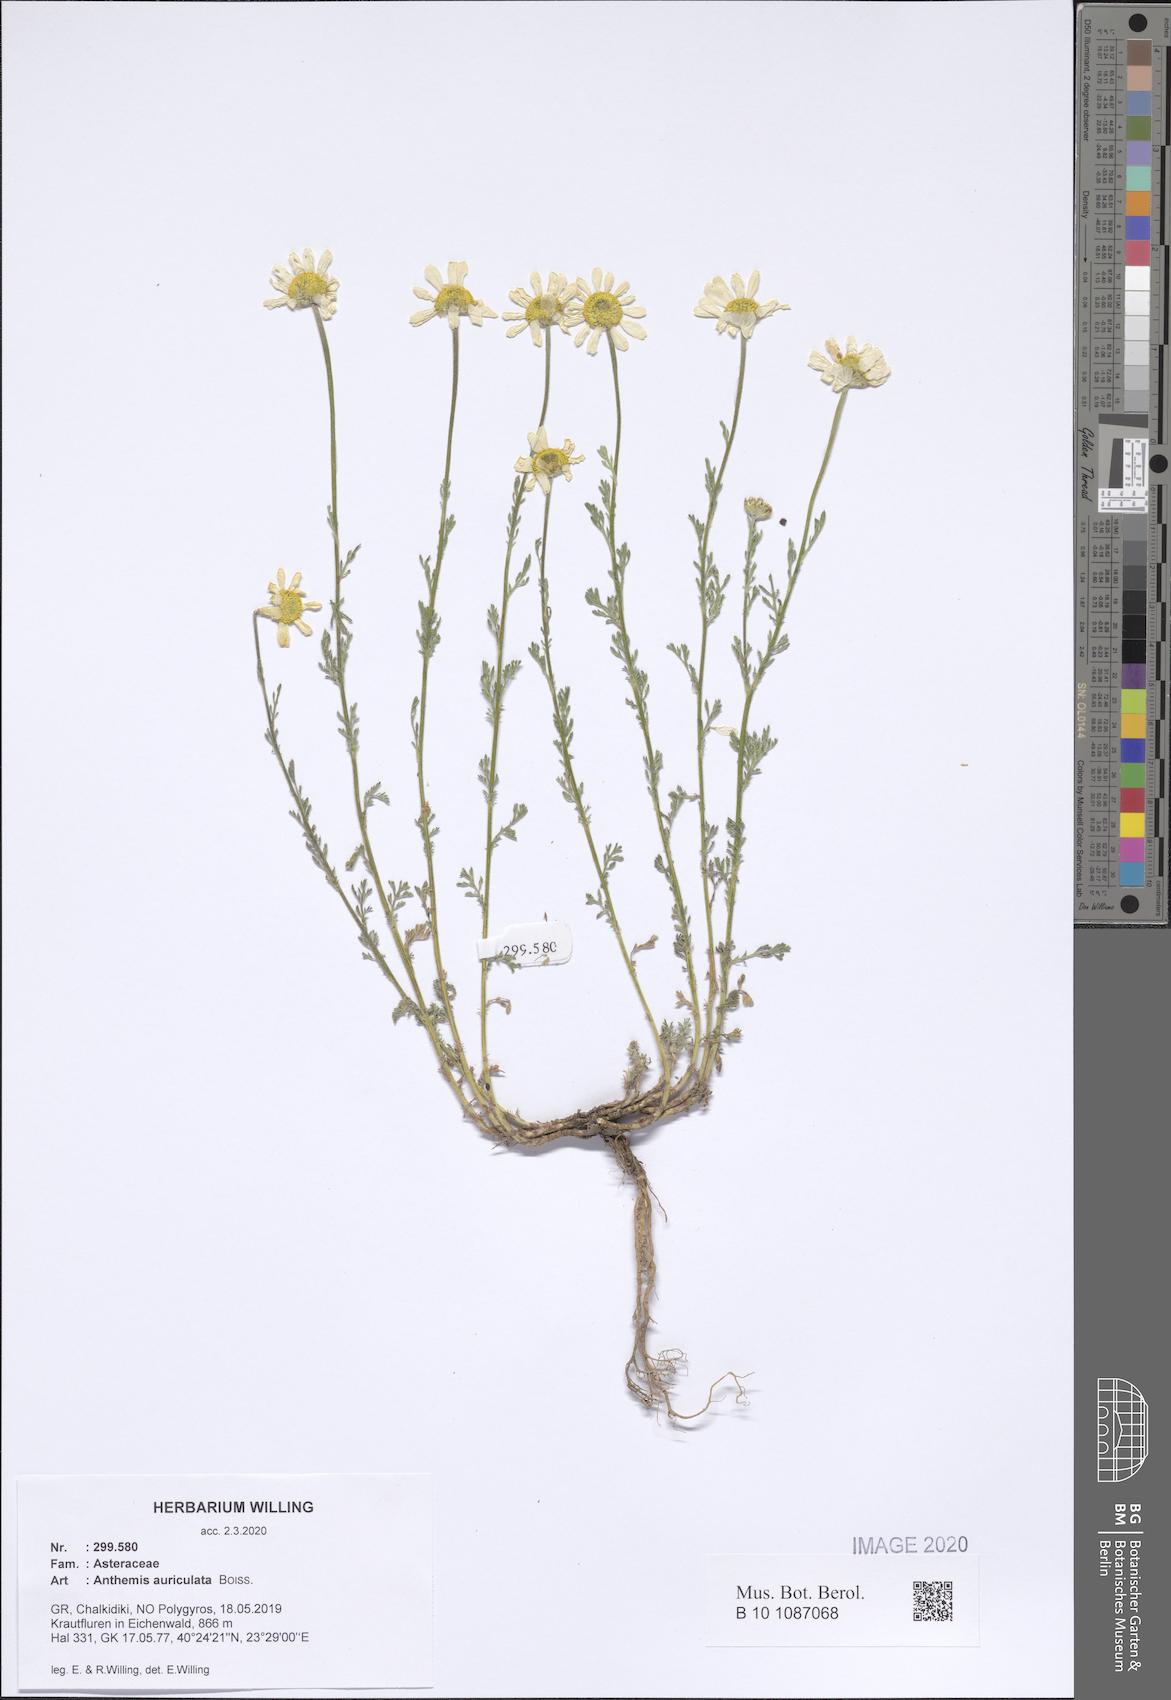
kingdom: Plantae
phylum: Tracheophyta
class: Magnoliopsida
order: Asterales
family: Asteraceae
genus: Anthemis
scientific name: Anthemis auriculata
